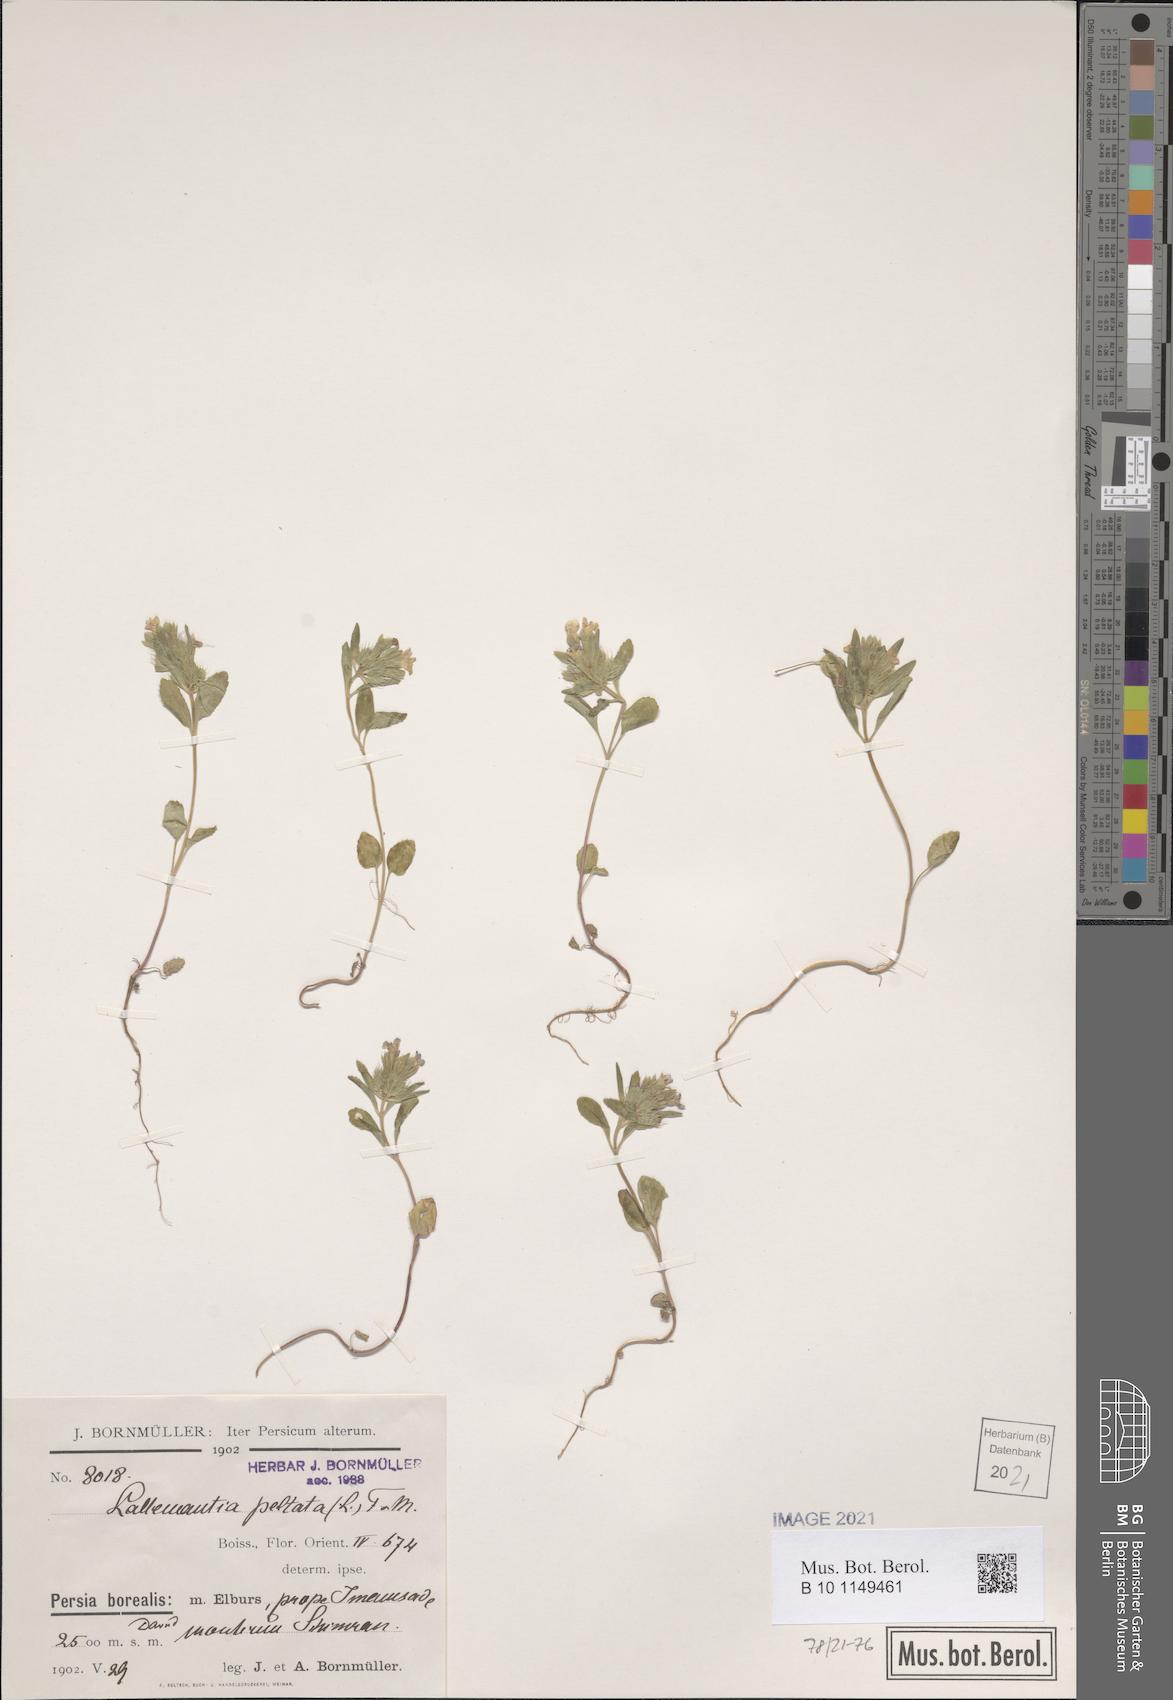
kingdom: Plantae
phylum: Tracheophyta
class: Magnoliopsida
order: Lamiales
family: Lamiaceae
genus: Lallemantia
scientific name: Lallemantia peltata
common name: Lion's heart
